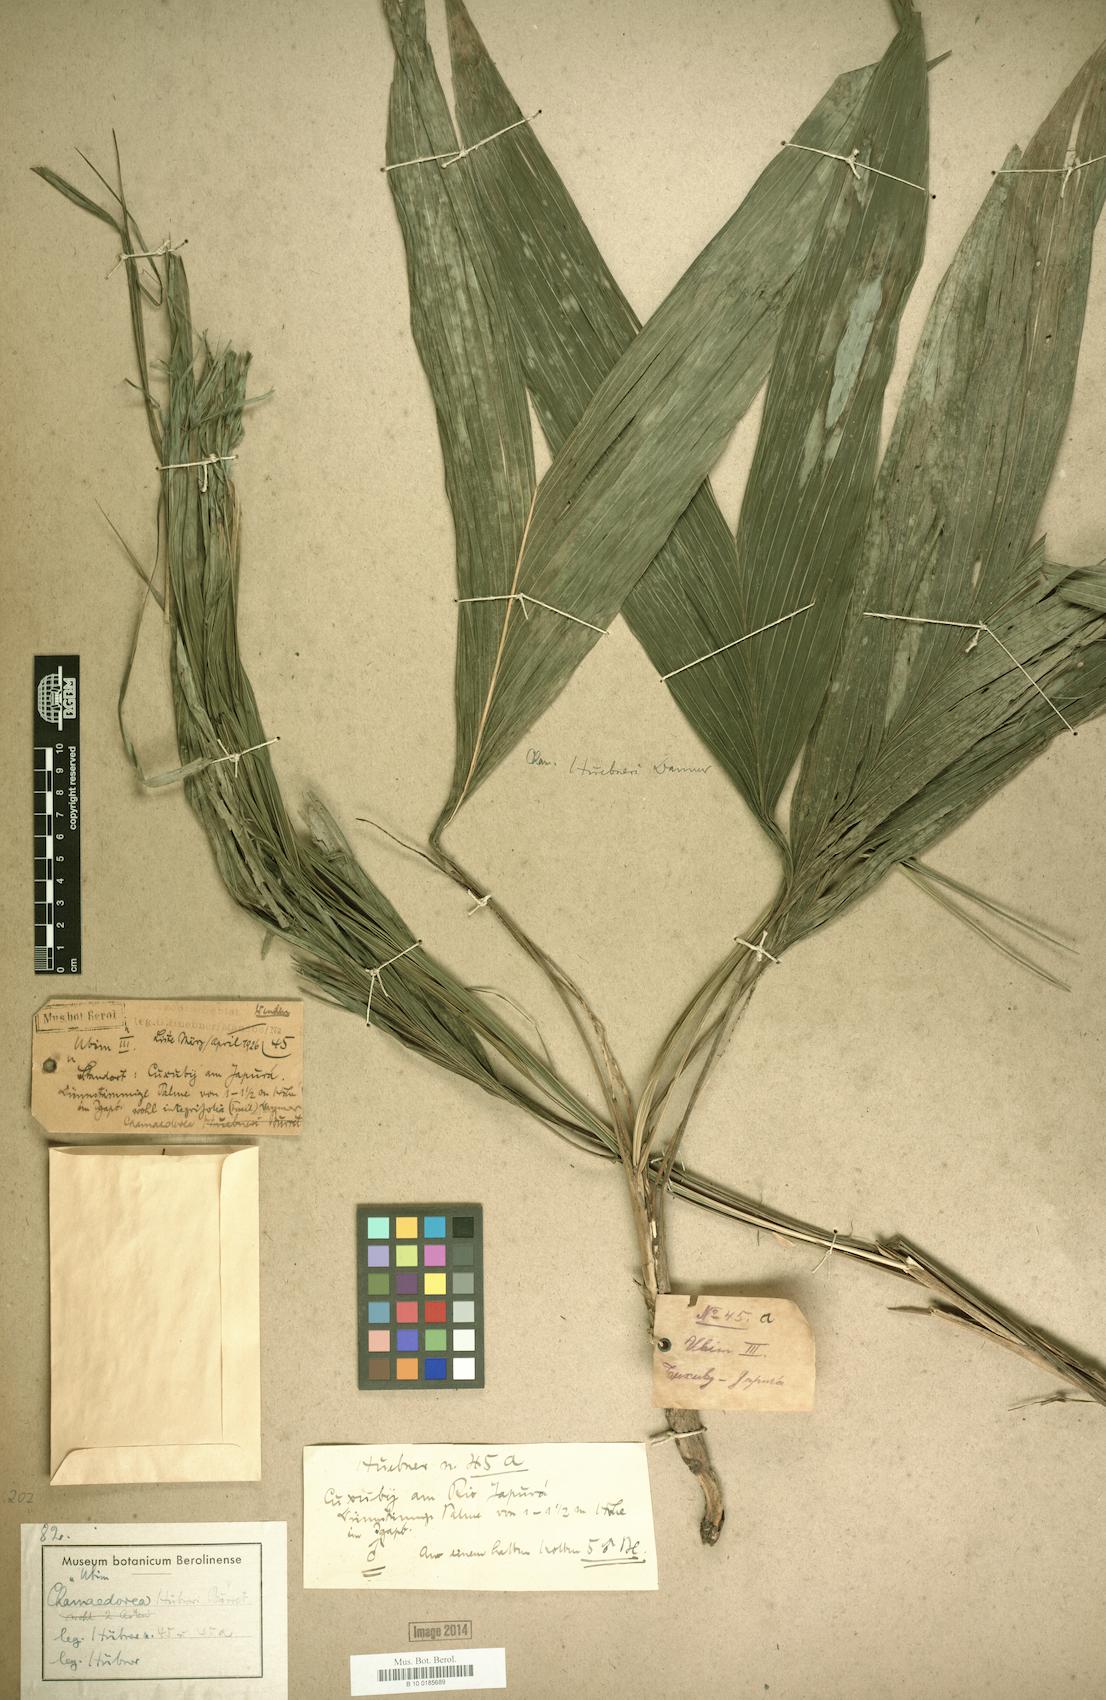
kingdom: Plantae
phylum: Tracheophyta
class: Liliopsida
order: Arecales
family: Arecaceae
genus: Chamaedorea
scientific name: Chamaedorea
